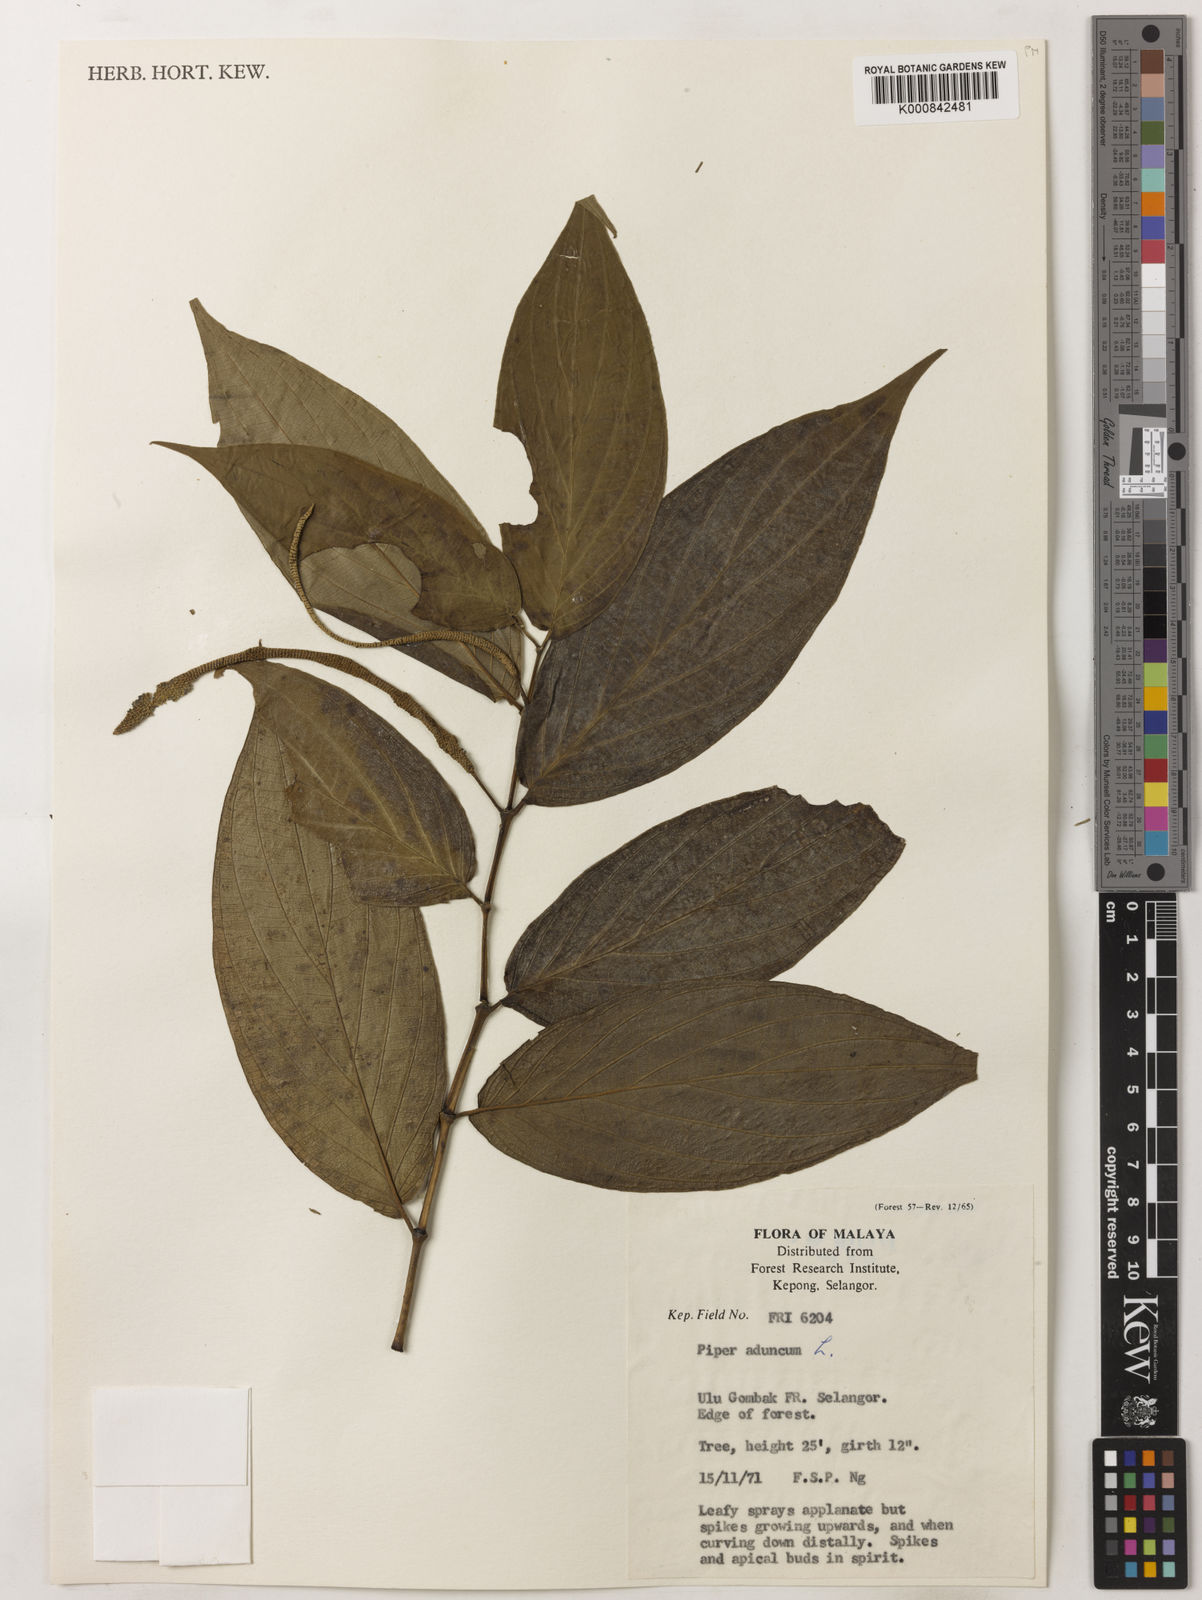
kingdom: Plantae
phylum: Tracheophyta
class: Magnoliopsida
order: Piperales
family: Piperaceae
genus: Piper
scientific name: Piper aduncum
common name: Spiked pepper
